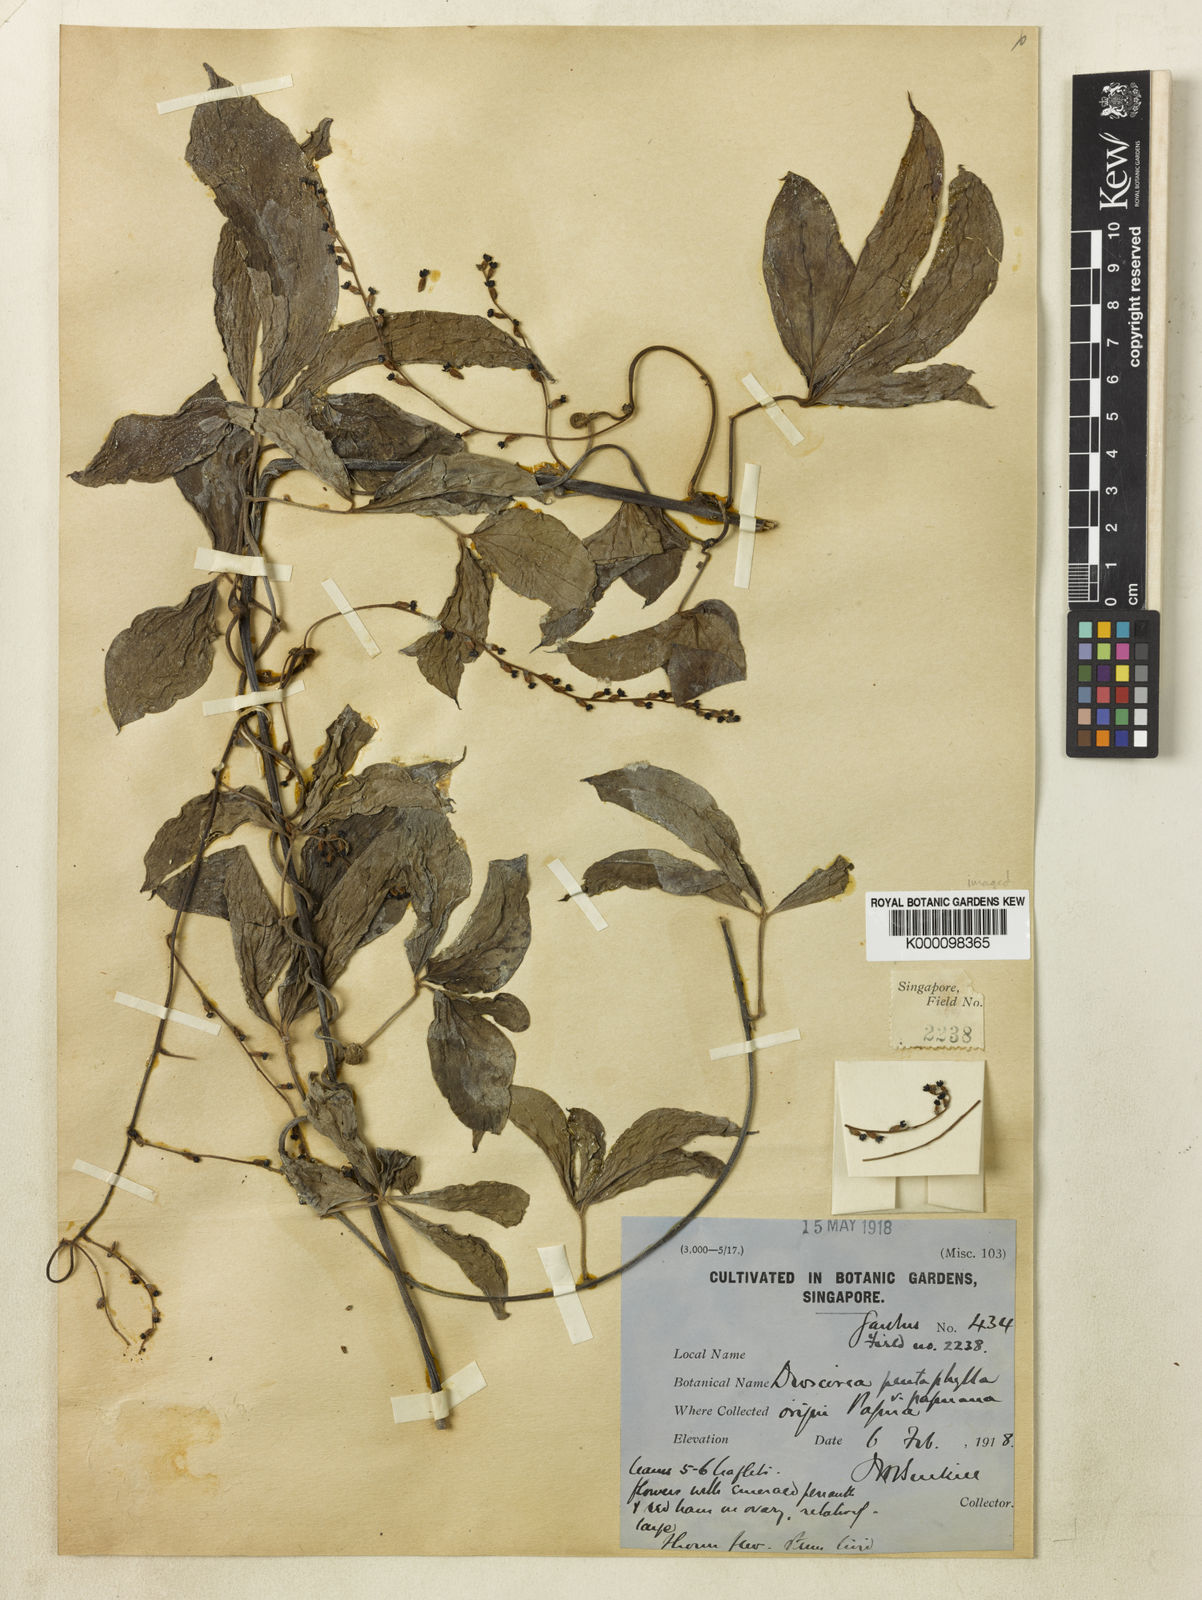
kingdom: Plantae
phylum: Tracheophyta
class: Liliopsida
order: Dioscoreales
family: Dioscoreaceae
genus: Dioscorea
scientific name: Dioscorea pentaphylla
